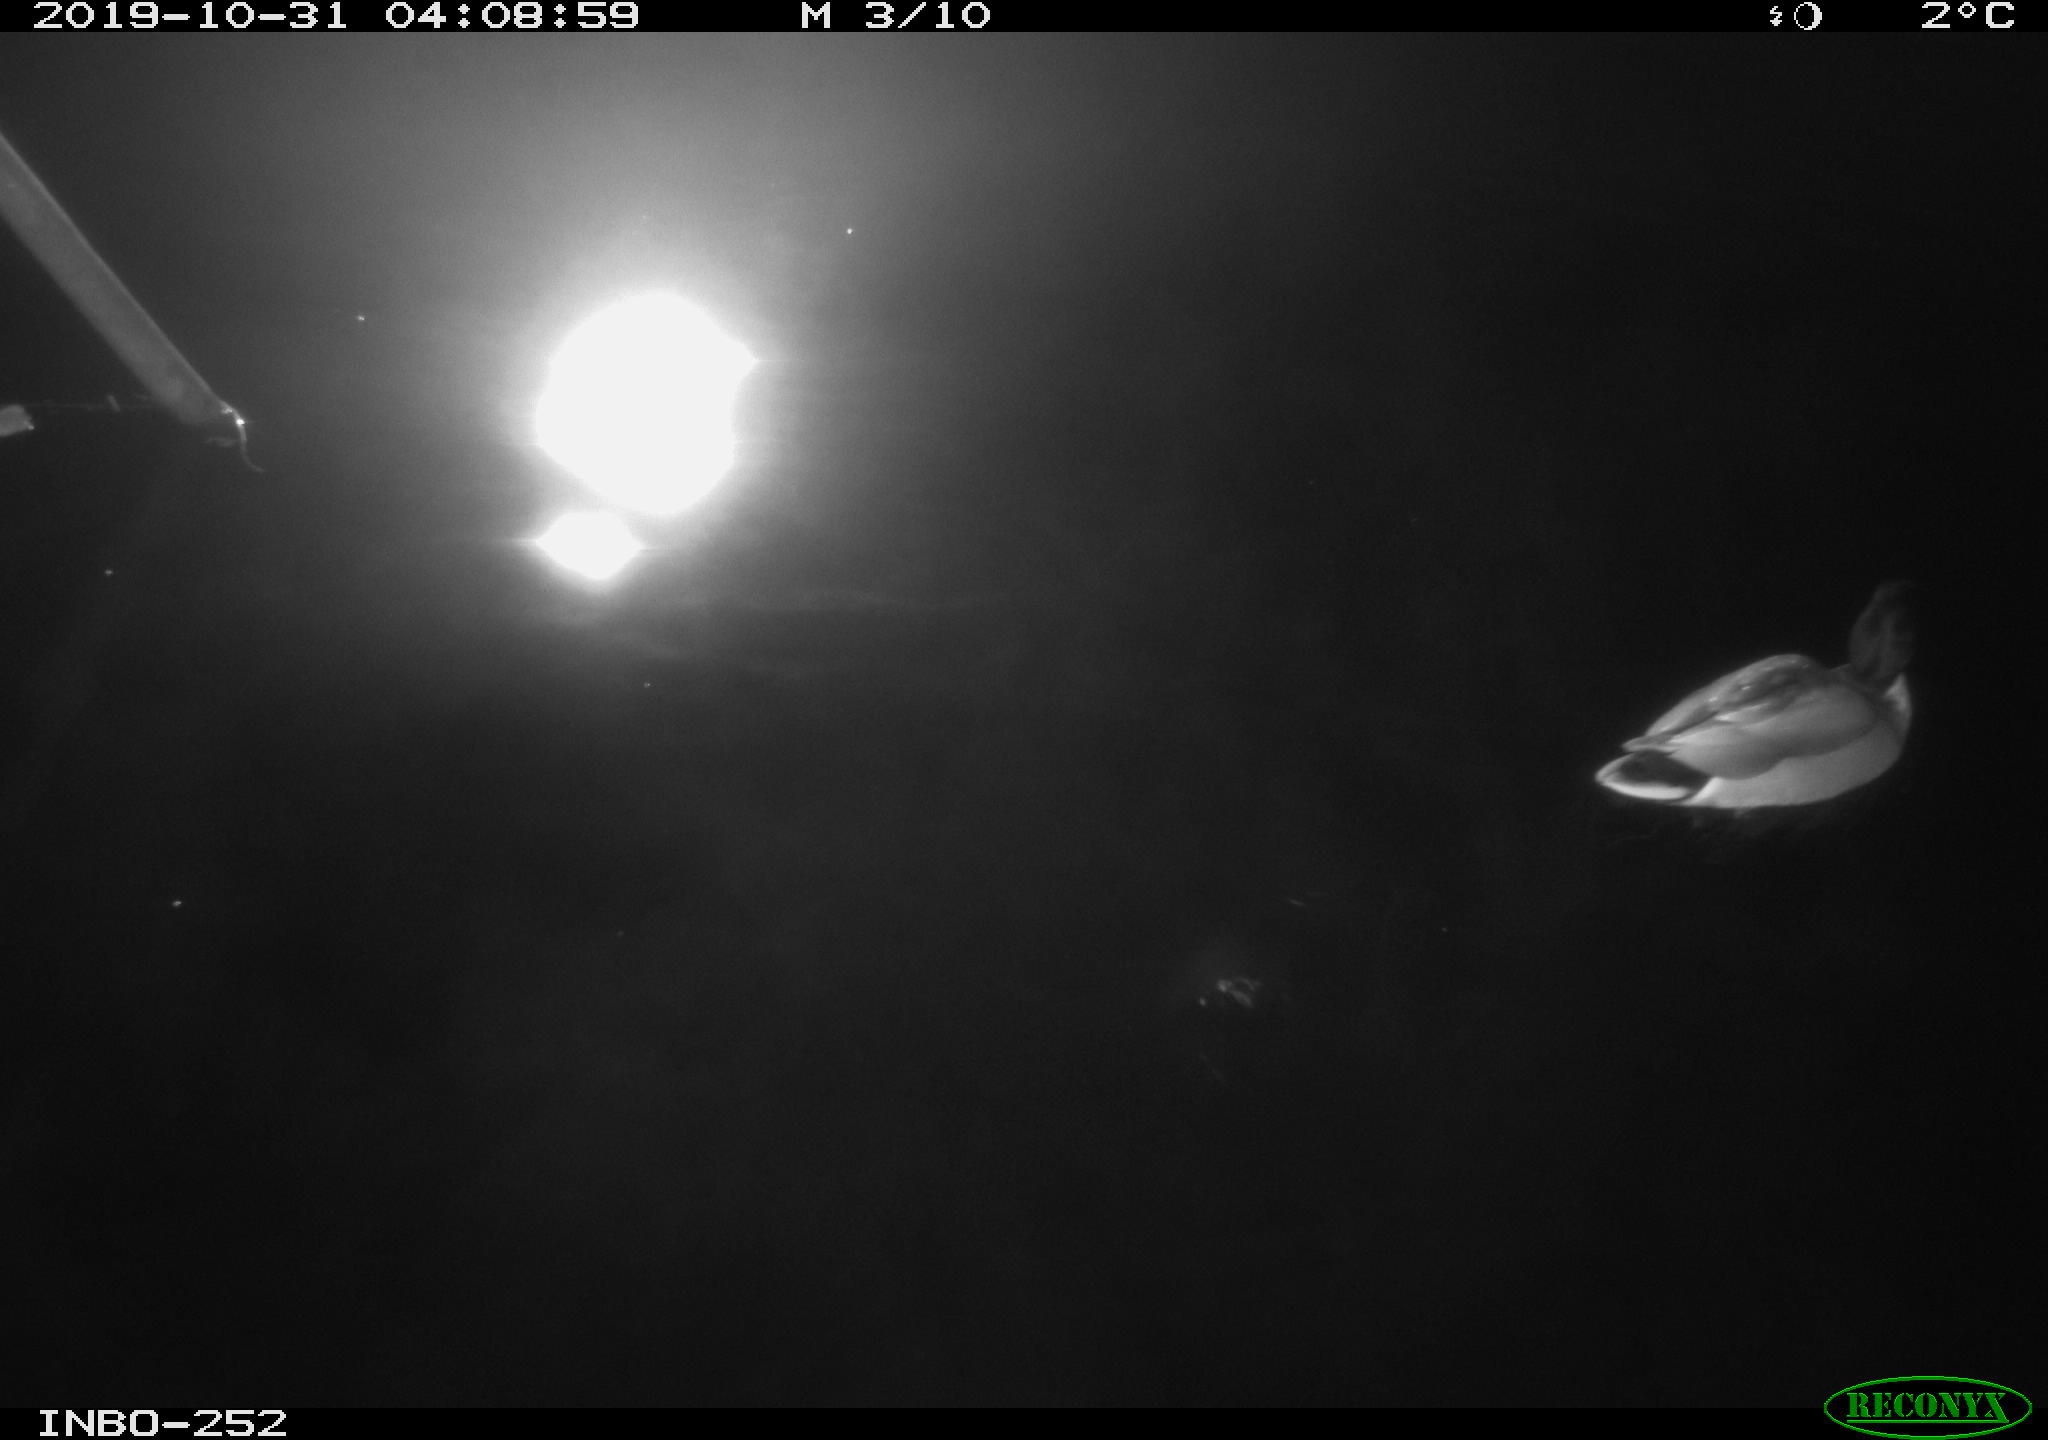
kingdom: Animalia
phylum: Chordata
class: Aves
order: Anseriformes
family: Anatidae
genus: Anas
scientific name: Anas platyrhynchos
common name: Mallard
